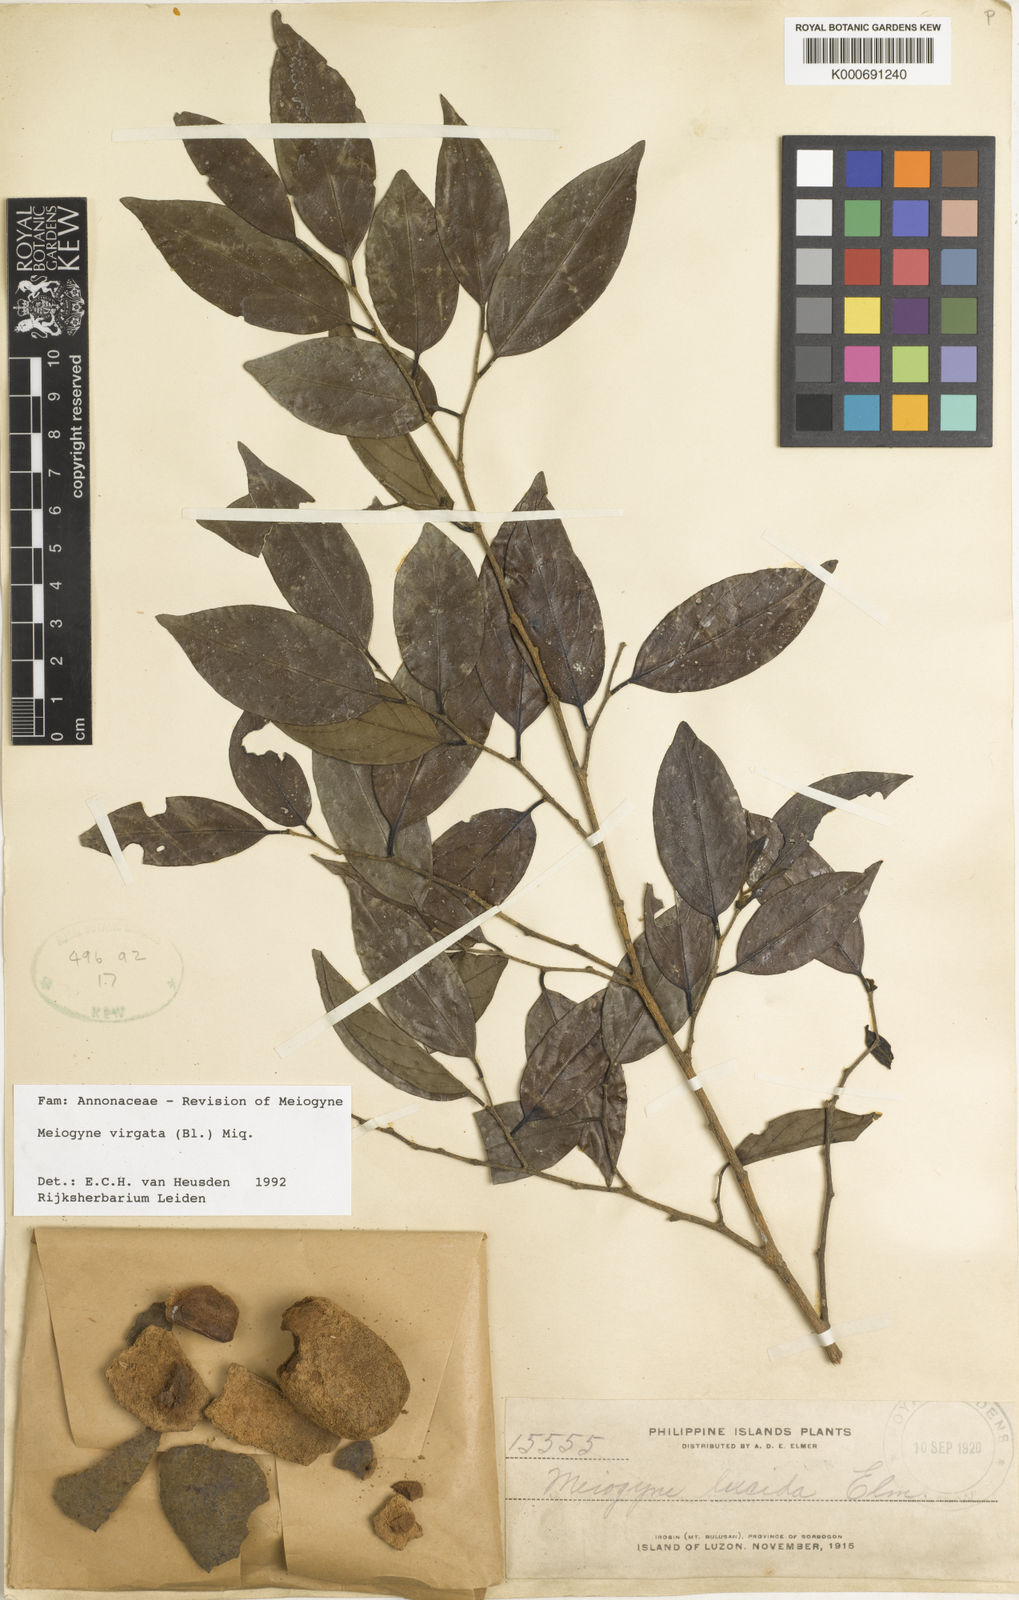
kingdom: Plantae
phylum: Tracheophyta
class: Magnoliopsida
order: Magnoliales
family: Annonaceae
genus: Meiogyne
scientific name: Meiogyne virgata
